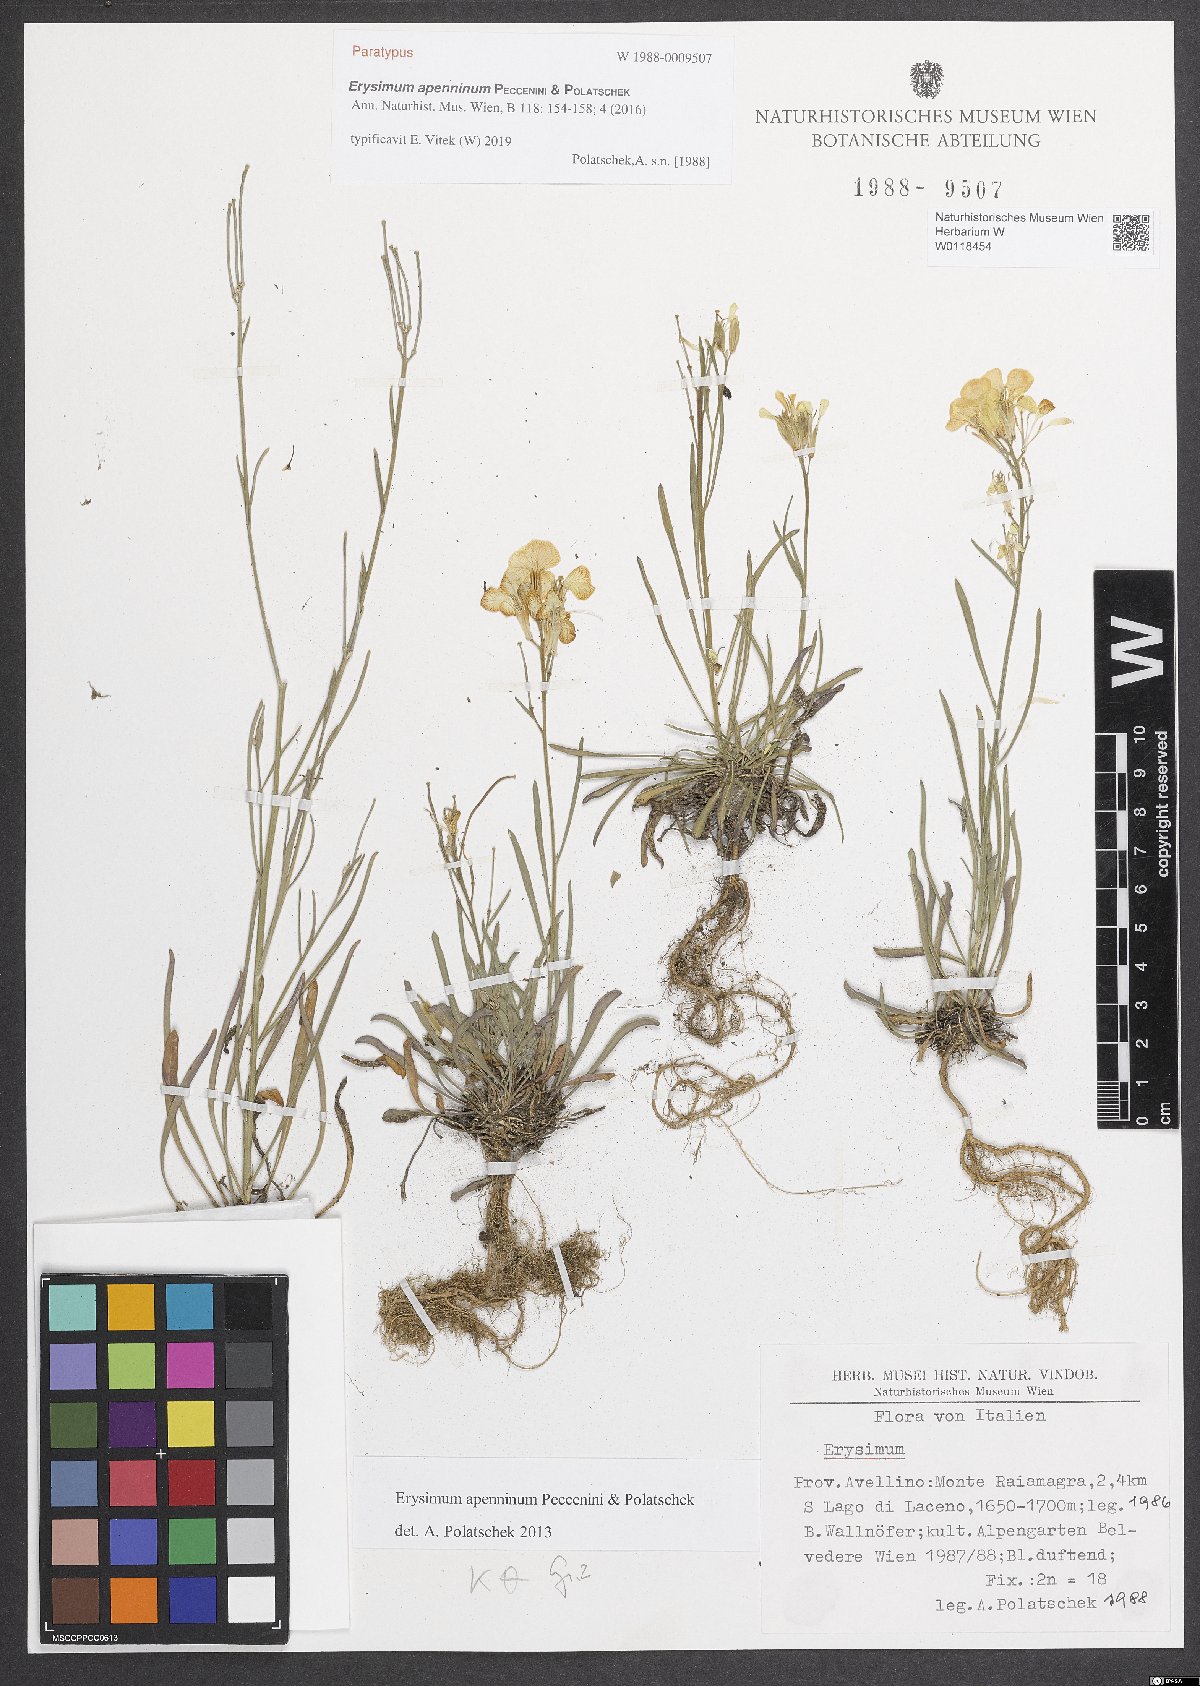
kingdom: Plantae
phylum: Tracheophyta
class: Magnoliopsida
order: Brassicales
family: Brassicaceae
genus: Erysimum
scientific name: Erysimum apenninum
